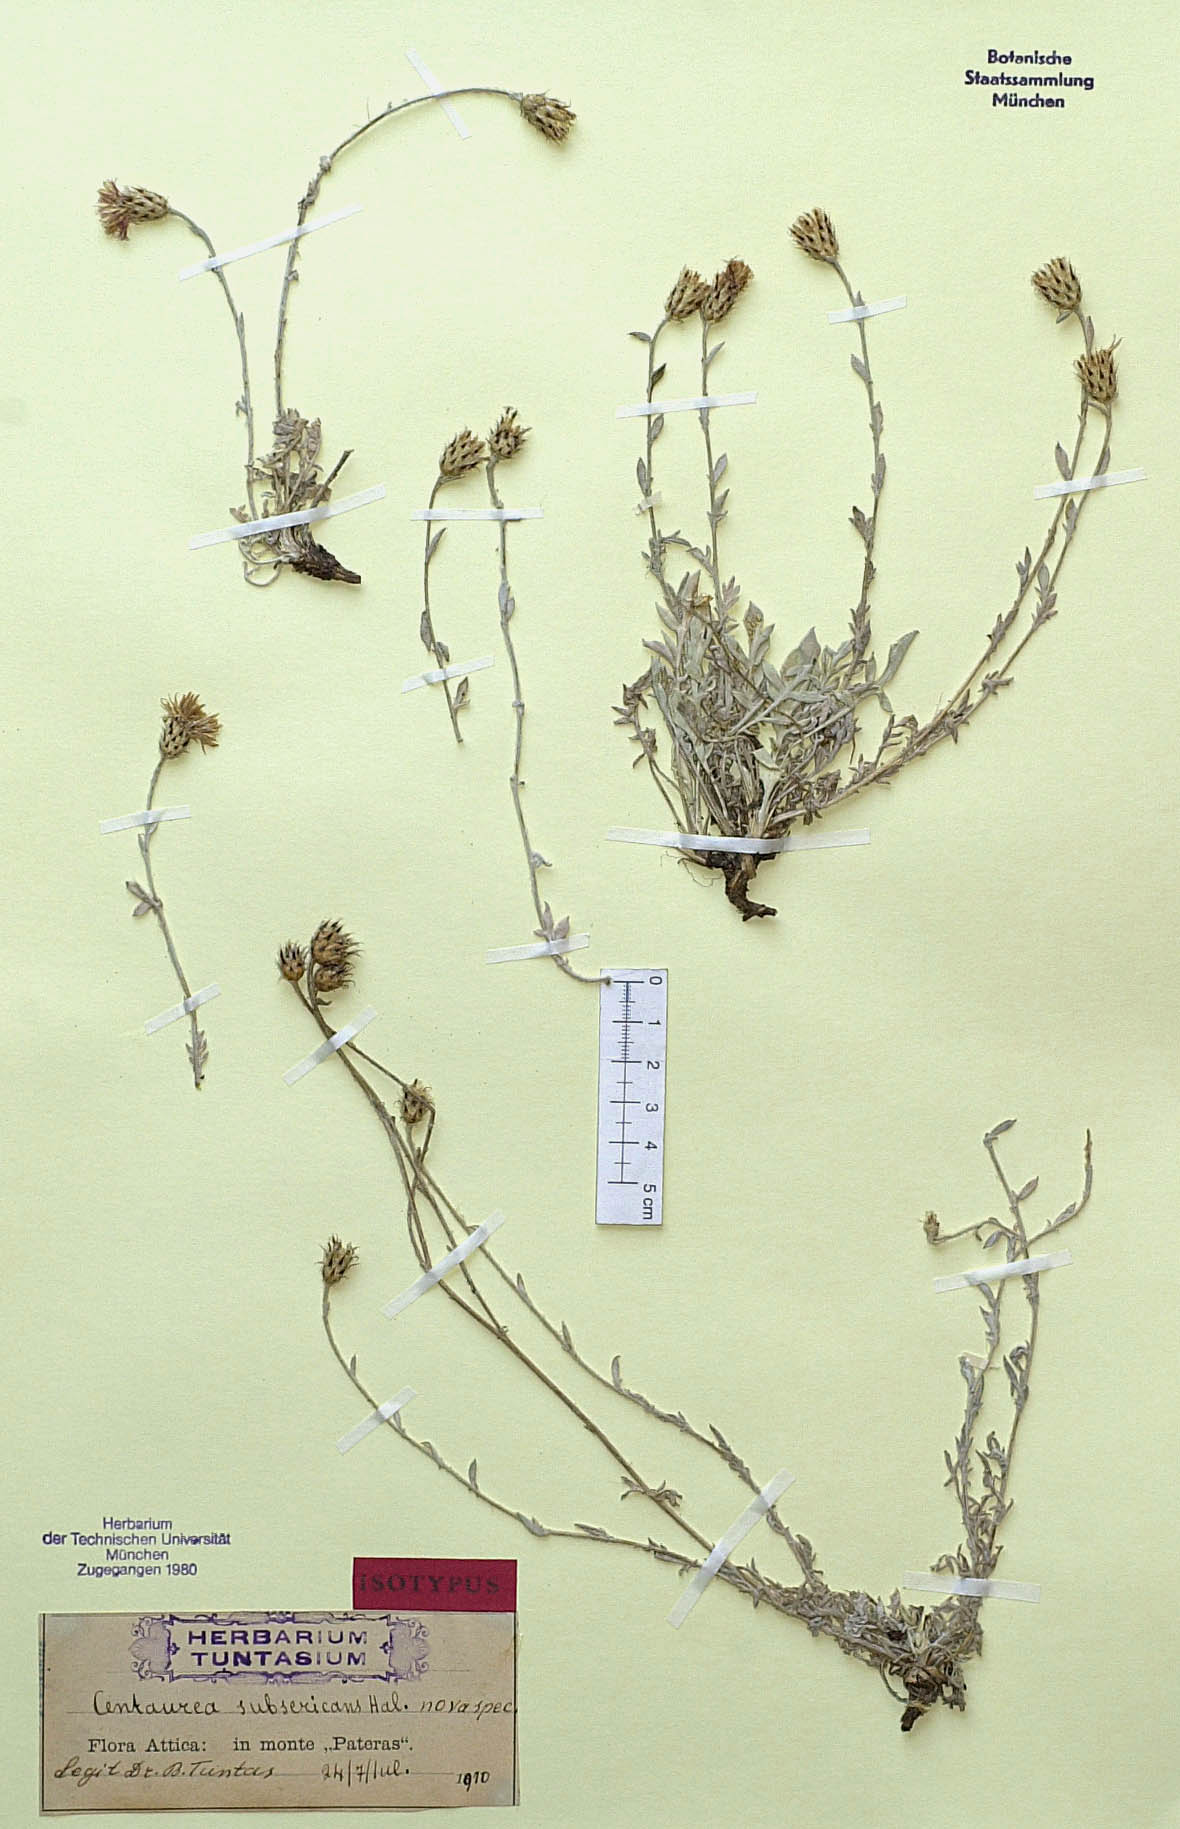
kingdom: Plantae
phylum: Tracheophyta
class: Magnoliopsida
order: Asterales
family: Asteraceae
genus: Centaurea
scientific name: Centaurea subsericans
